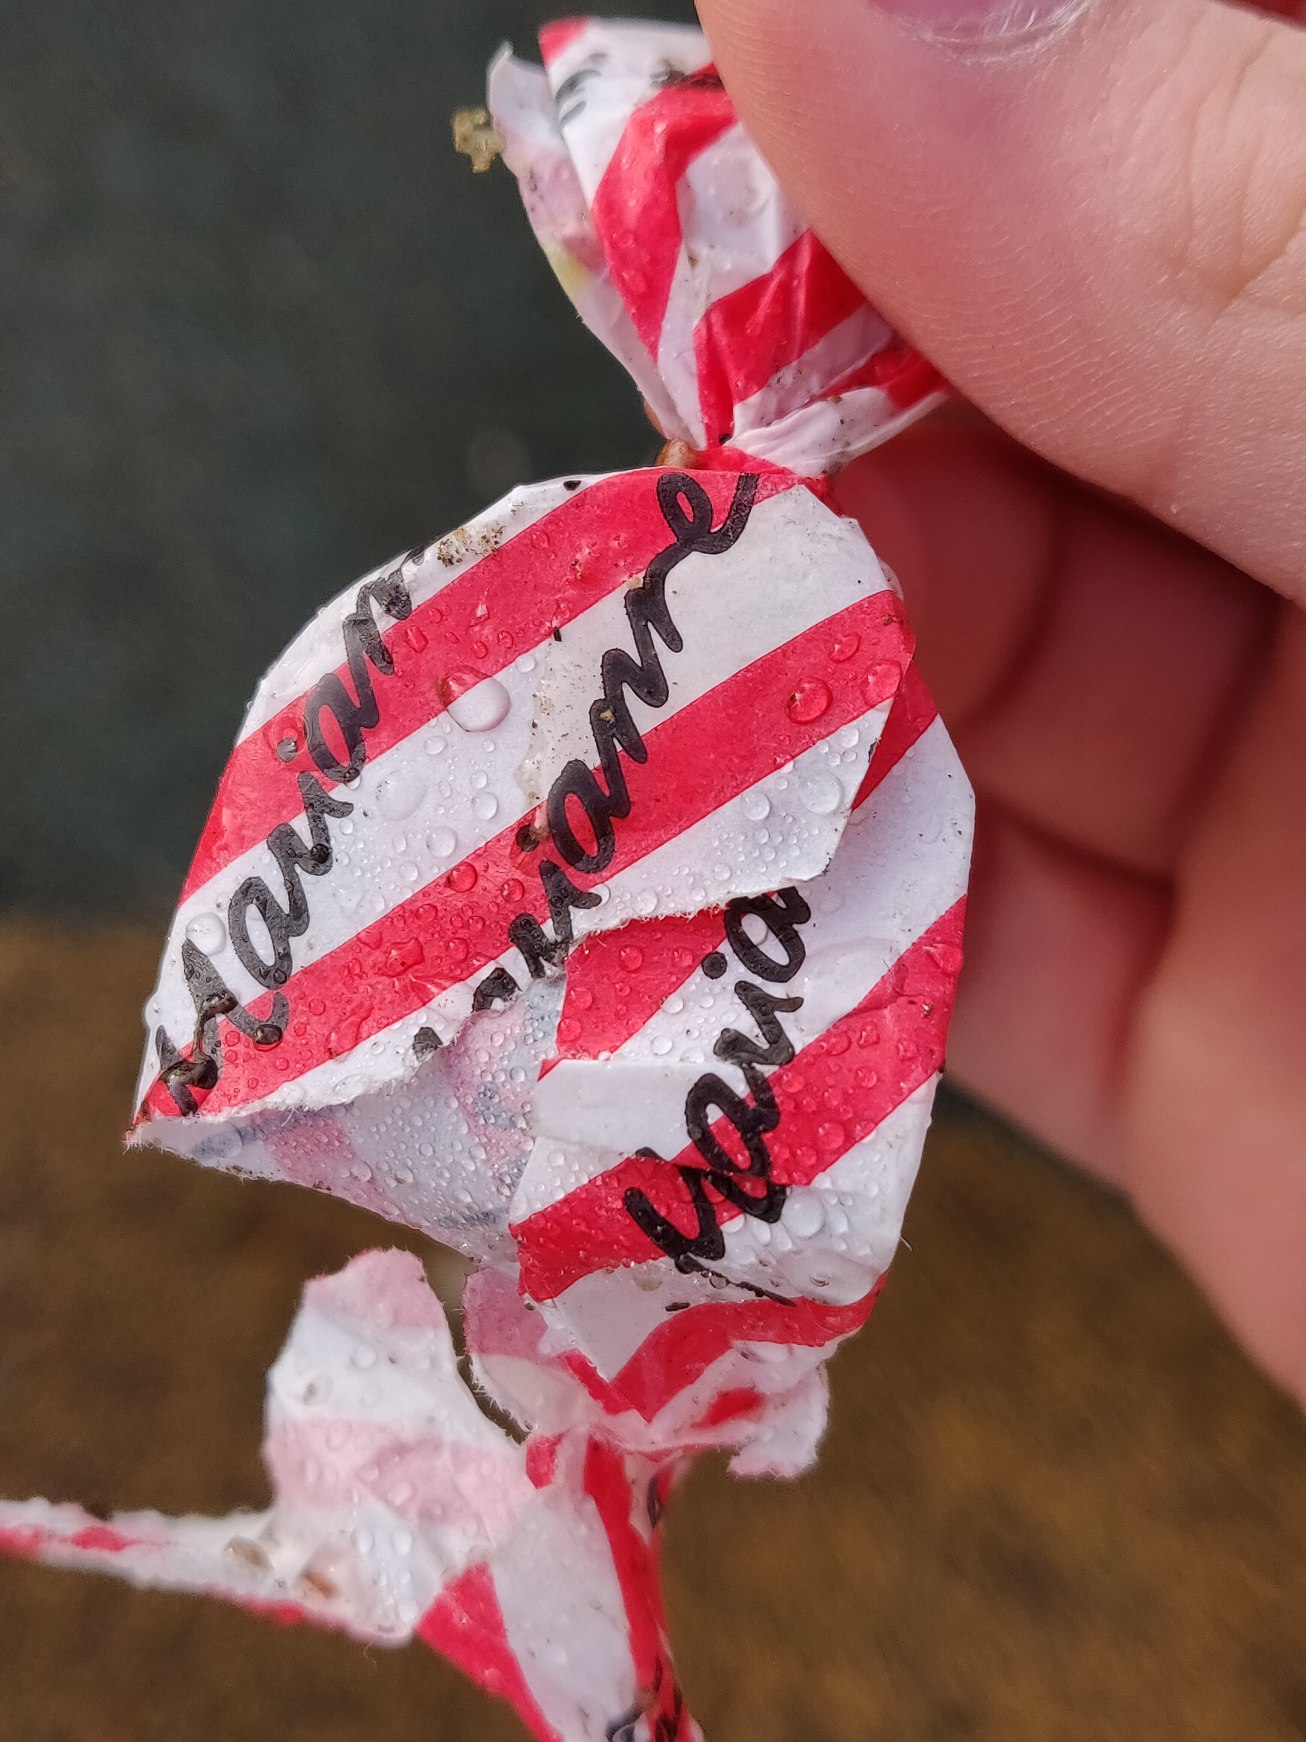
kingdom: Animalia
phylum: Chordata
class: Aves
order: Charadriiformes
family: Laridae
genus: Chroicocephalus
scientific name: Chroicocephalus ridibundus
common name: Hættemåge
